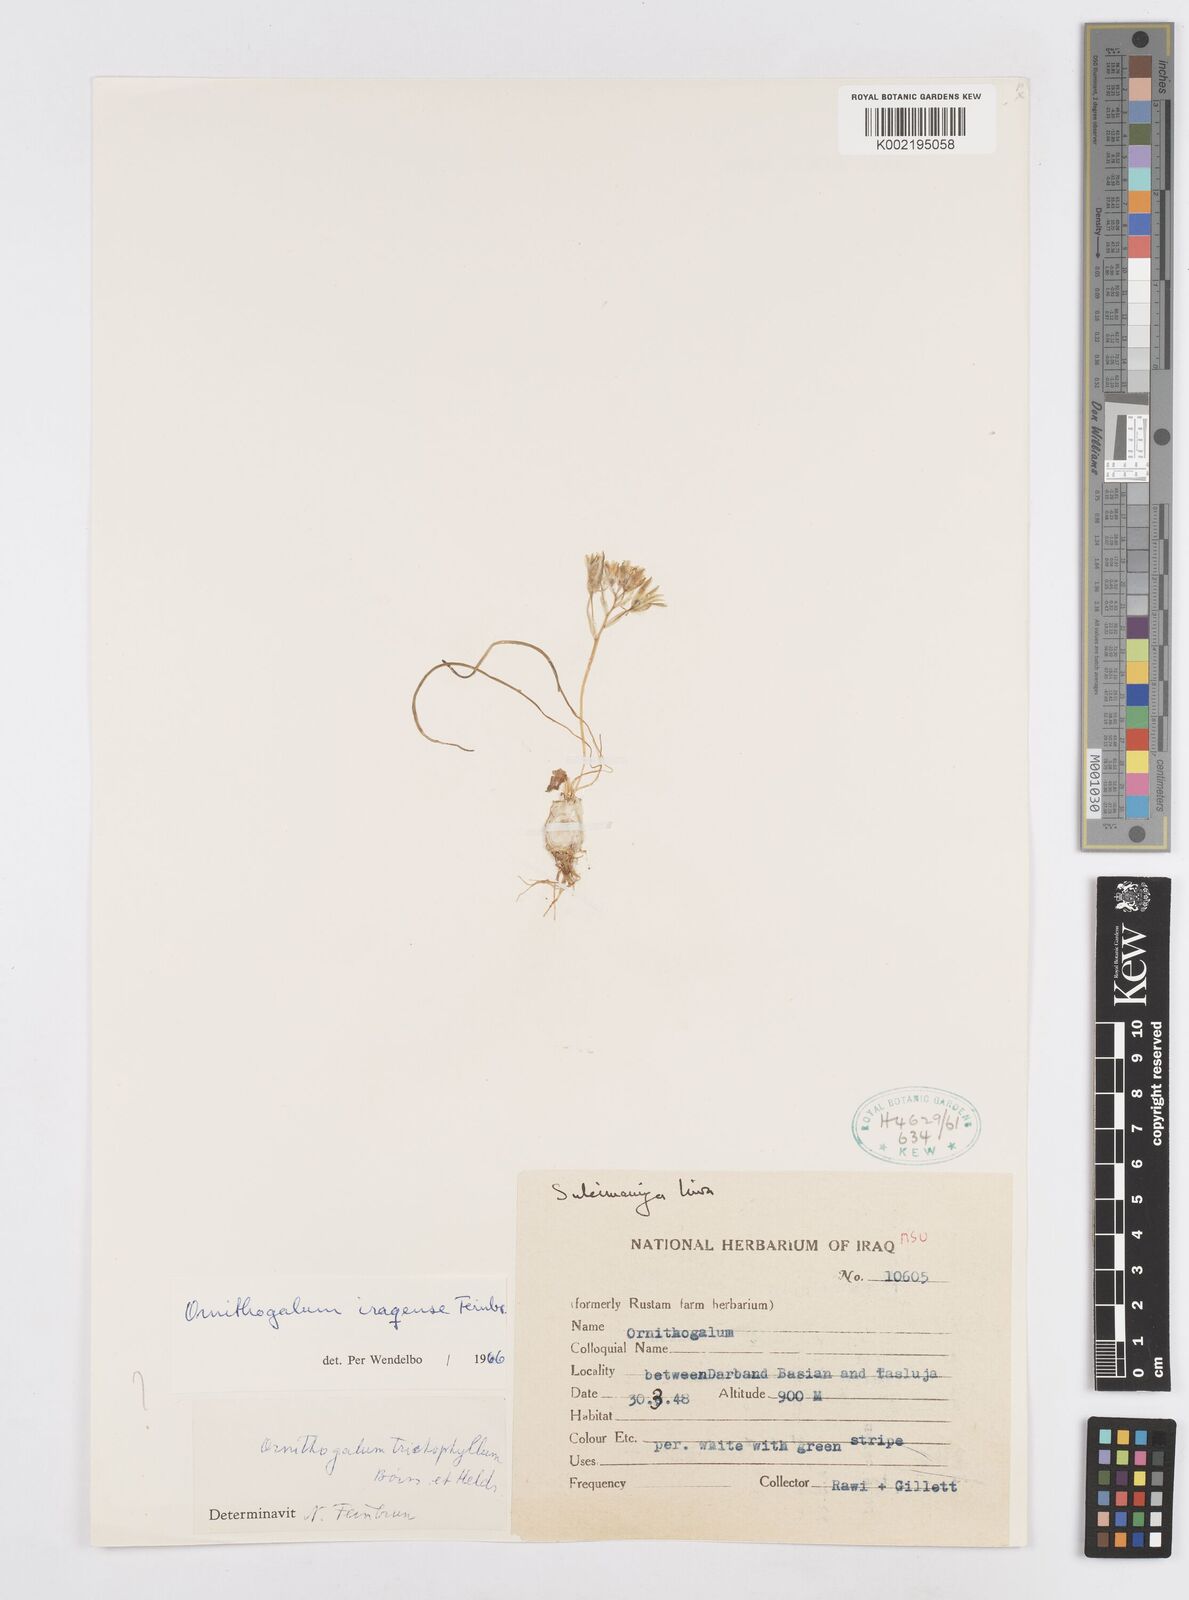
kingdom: Plantae
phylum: Tracheophyta
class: Liliopsida
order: Asparagales
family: Asparagaceae
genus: Ornithogalum
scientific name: Ornithogalum iraqense
